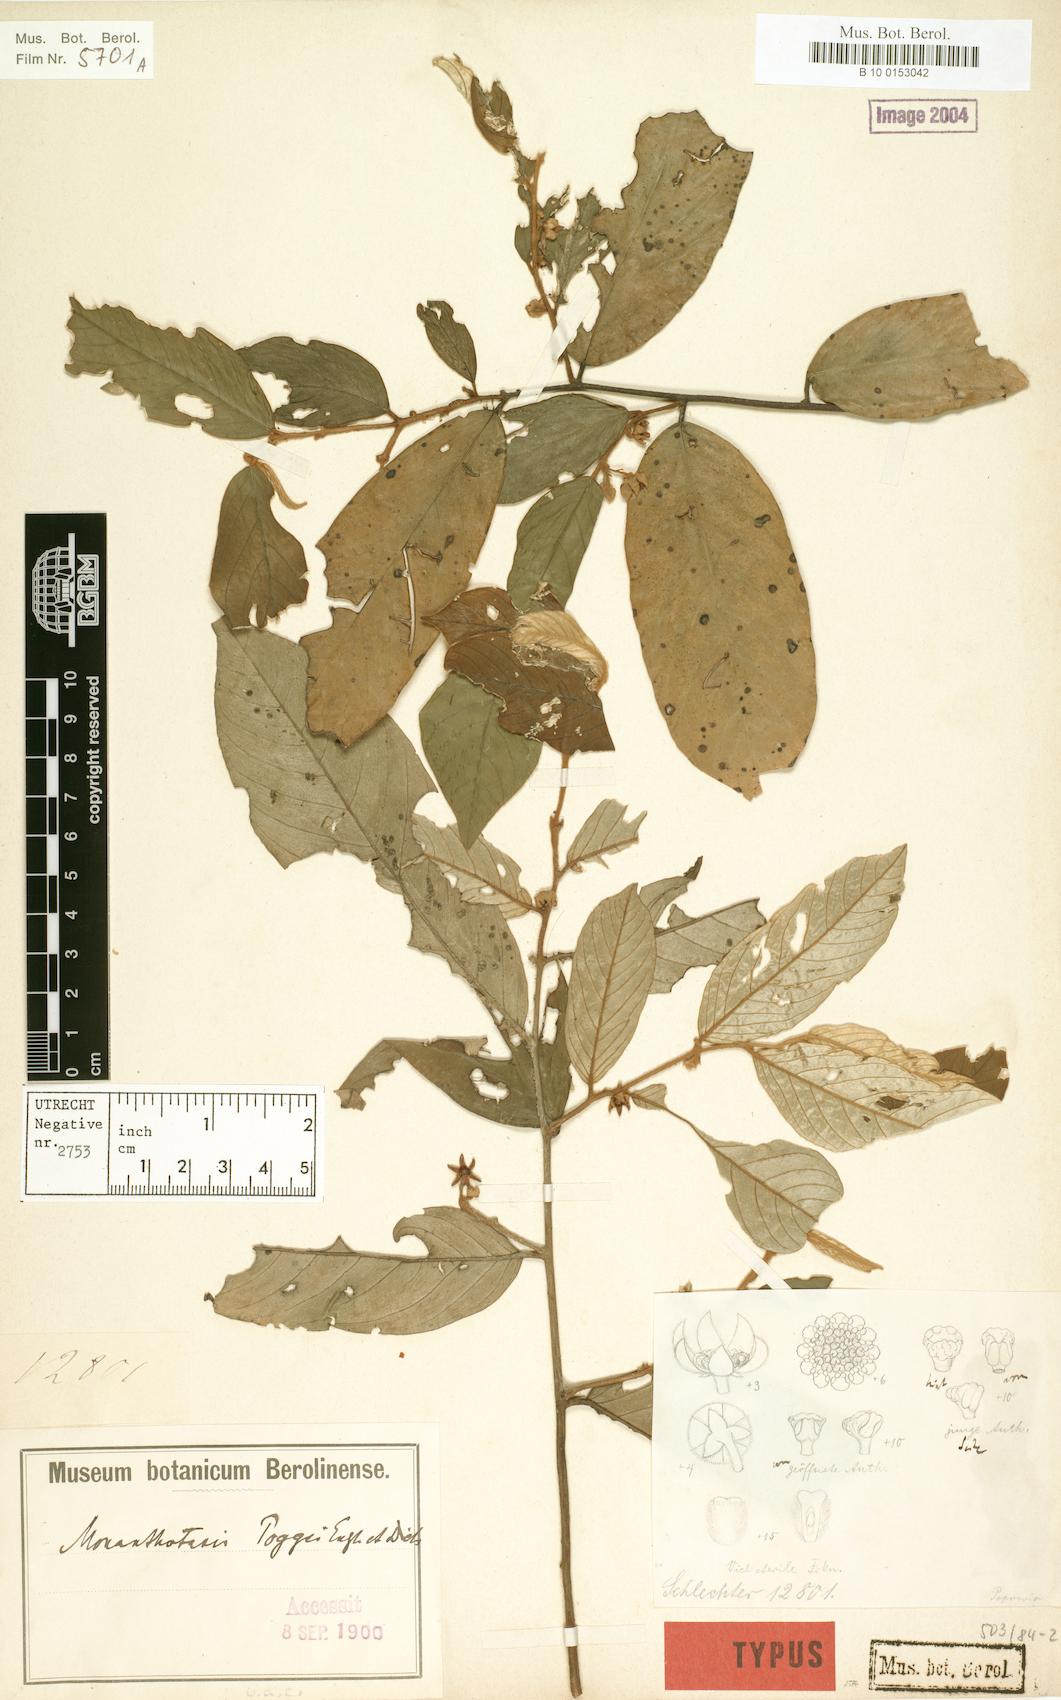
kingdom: Plantae
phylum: Tracheophyta
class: Magnoliopsida
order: Magnoliales
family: Annonaceae
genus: Monanthotaxis
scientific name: Monanthotaxis poggei
